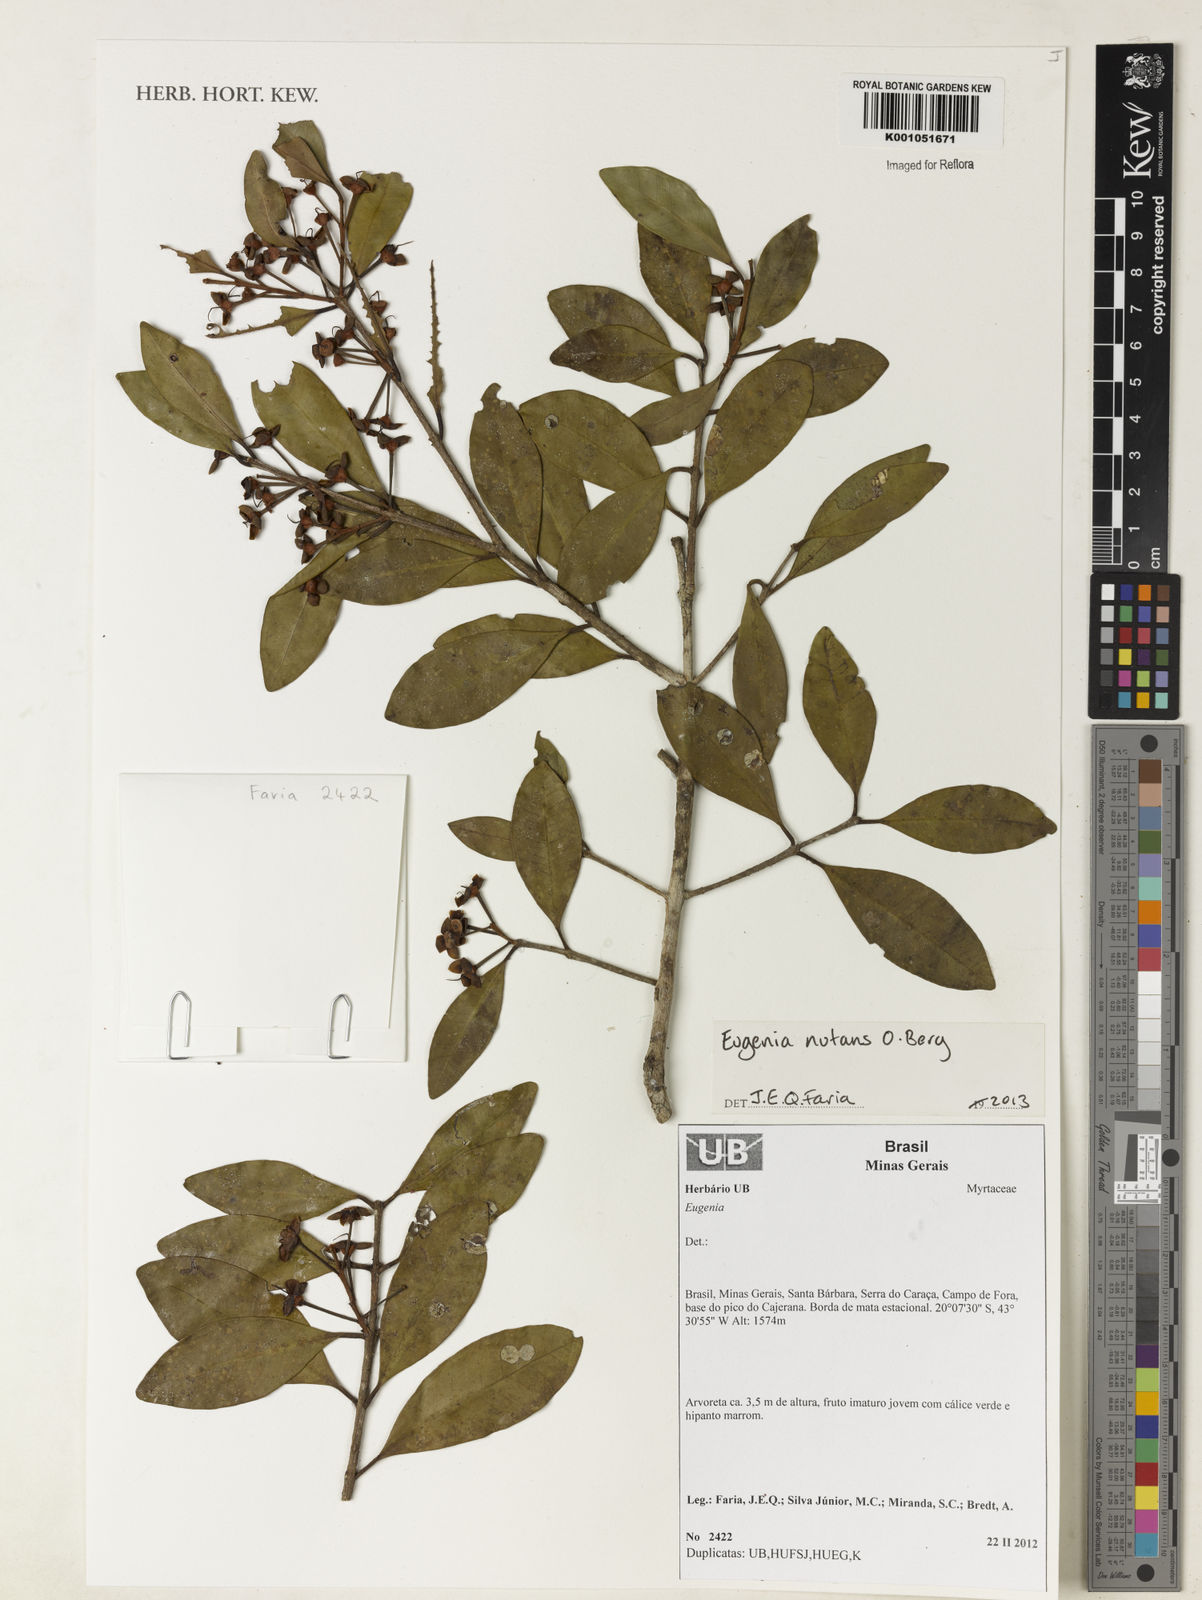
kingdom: Plantae
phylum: Tracheophyta
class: Magnoliopsida
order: Myrtales
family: Myrtaceae
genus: Eugenia
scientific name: Eugenia nutans
